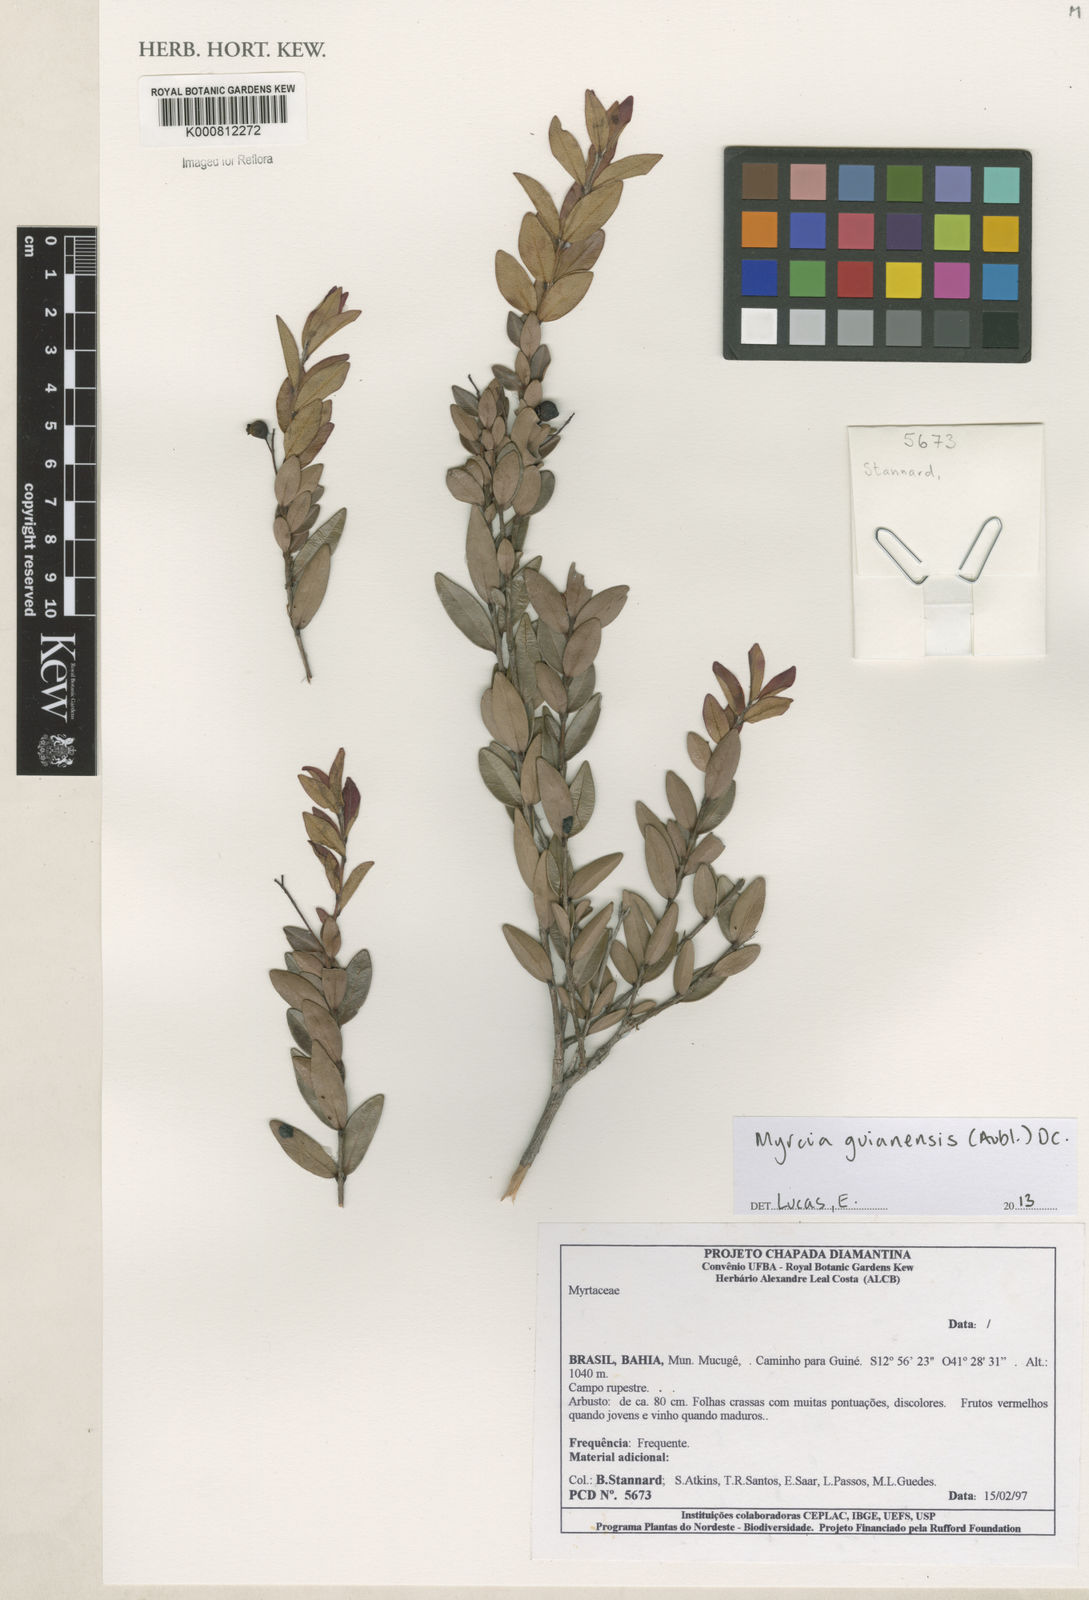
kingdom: Plantae
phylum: Tracheophyta
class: Magnoliopsida
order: Myrtales
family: Myrtaceae
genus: Myrcia
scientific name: Myrcia guianensis
